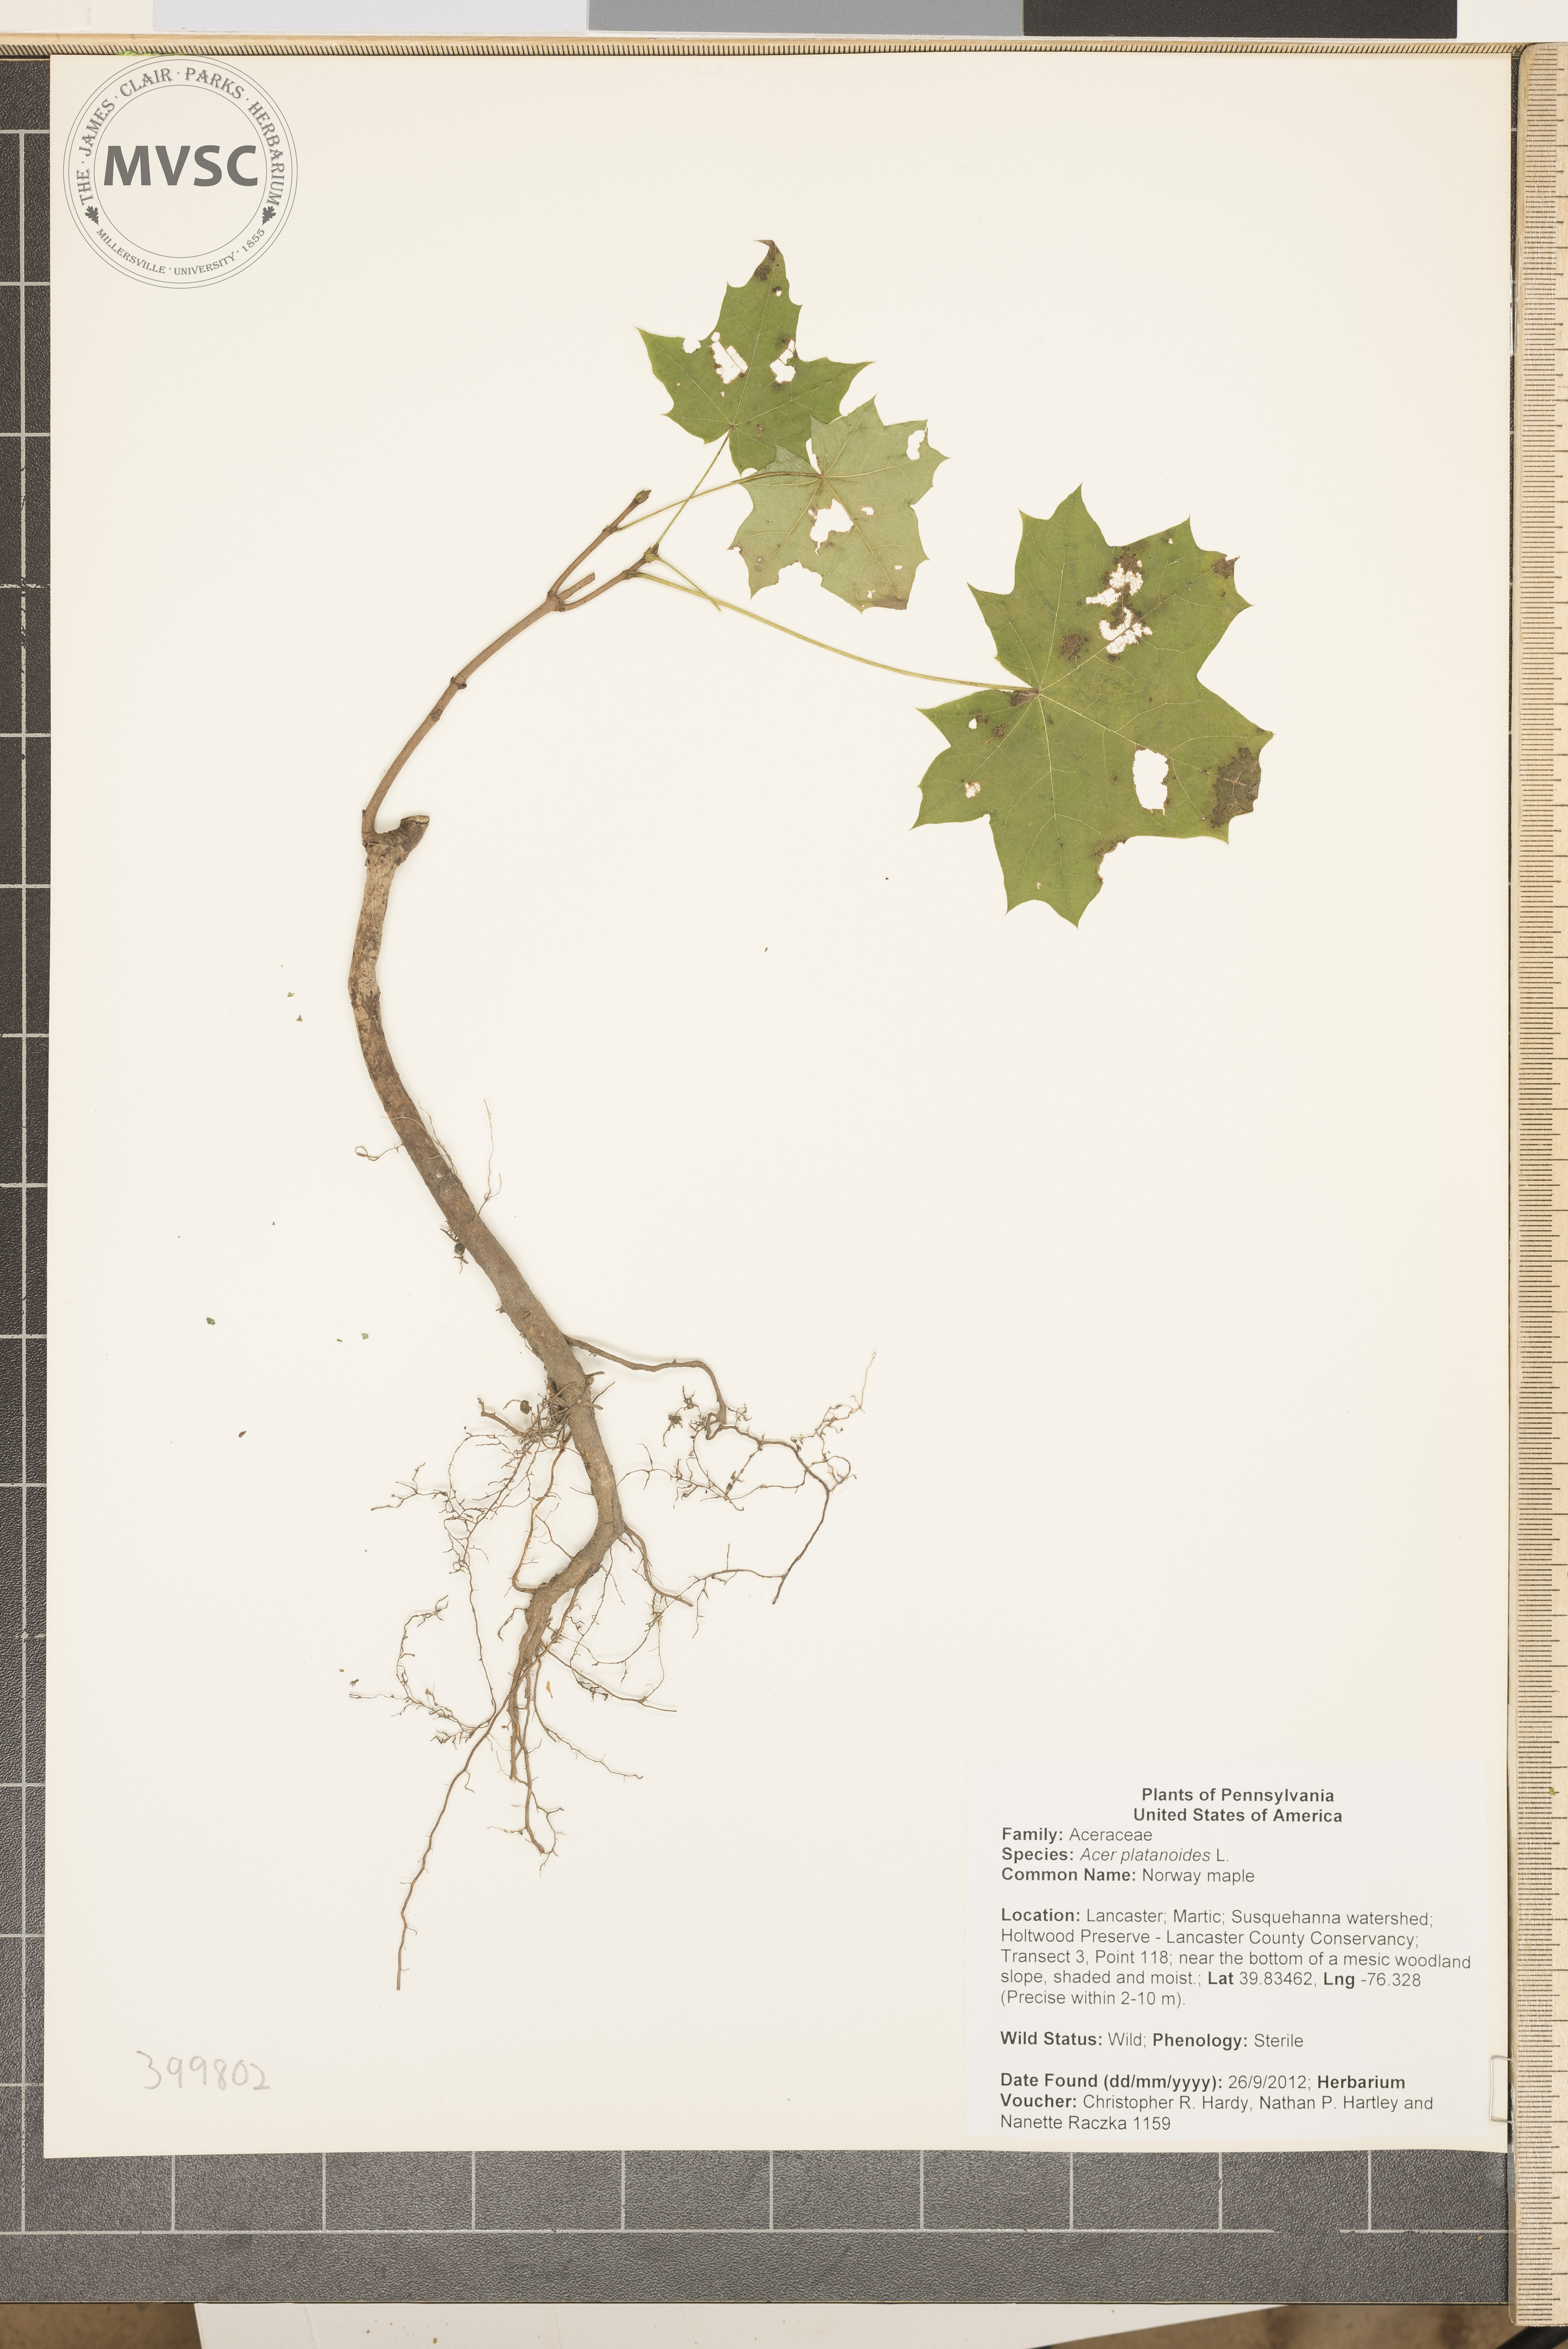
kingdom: Plantae
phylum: Tracheophyta
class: Magnoliopsida
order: Sapindales
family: Sapindaceae
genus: Acer
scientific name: Acer platanoides
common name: Norway maple
